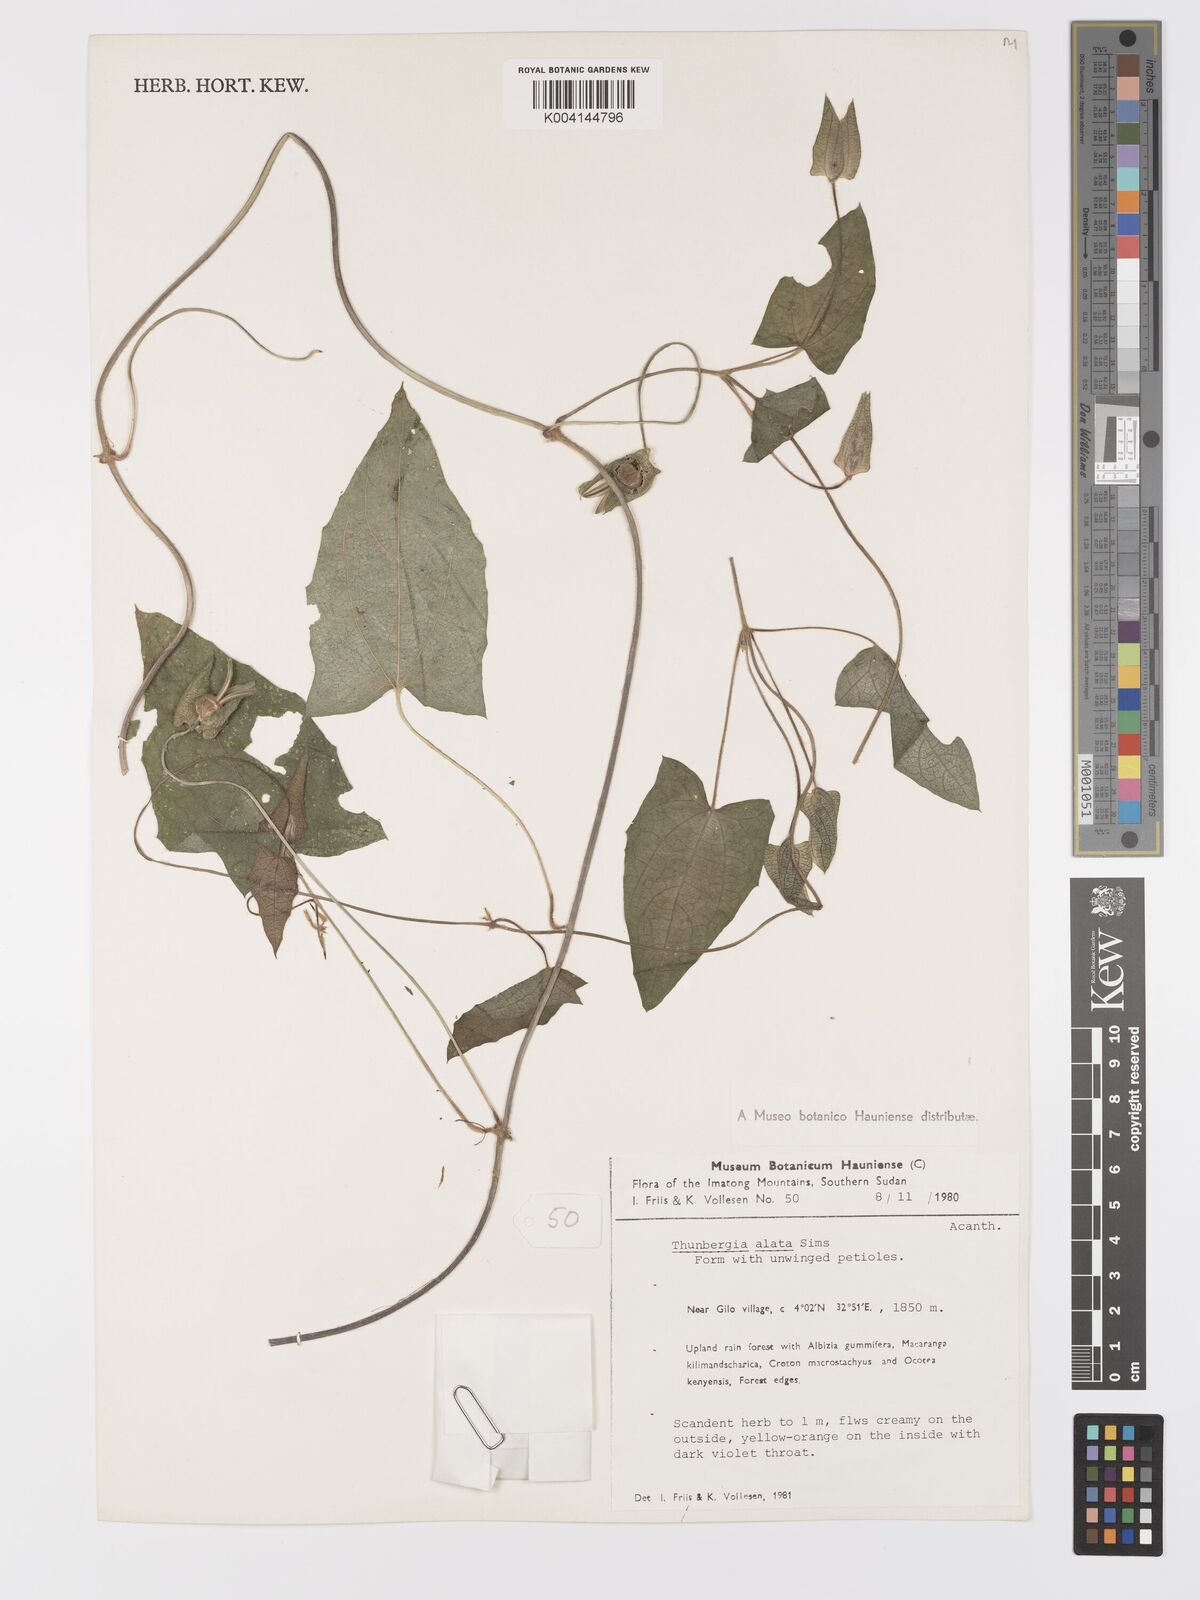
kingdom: Plantae
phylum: Tracheophyta
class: Magnoliopsida
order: Lamiales
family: Acanthaceae
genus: Thunbergia
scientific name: Thunbergia alata
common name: Blackeyed susan vine
